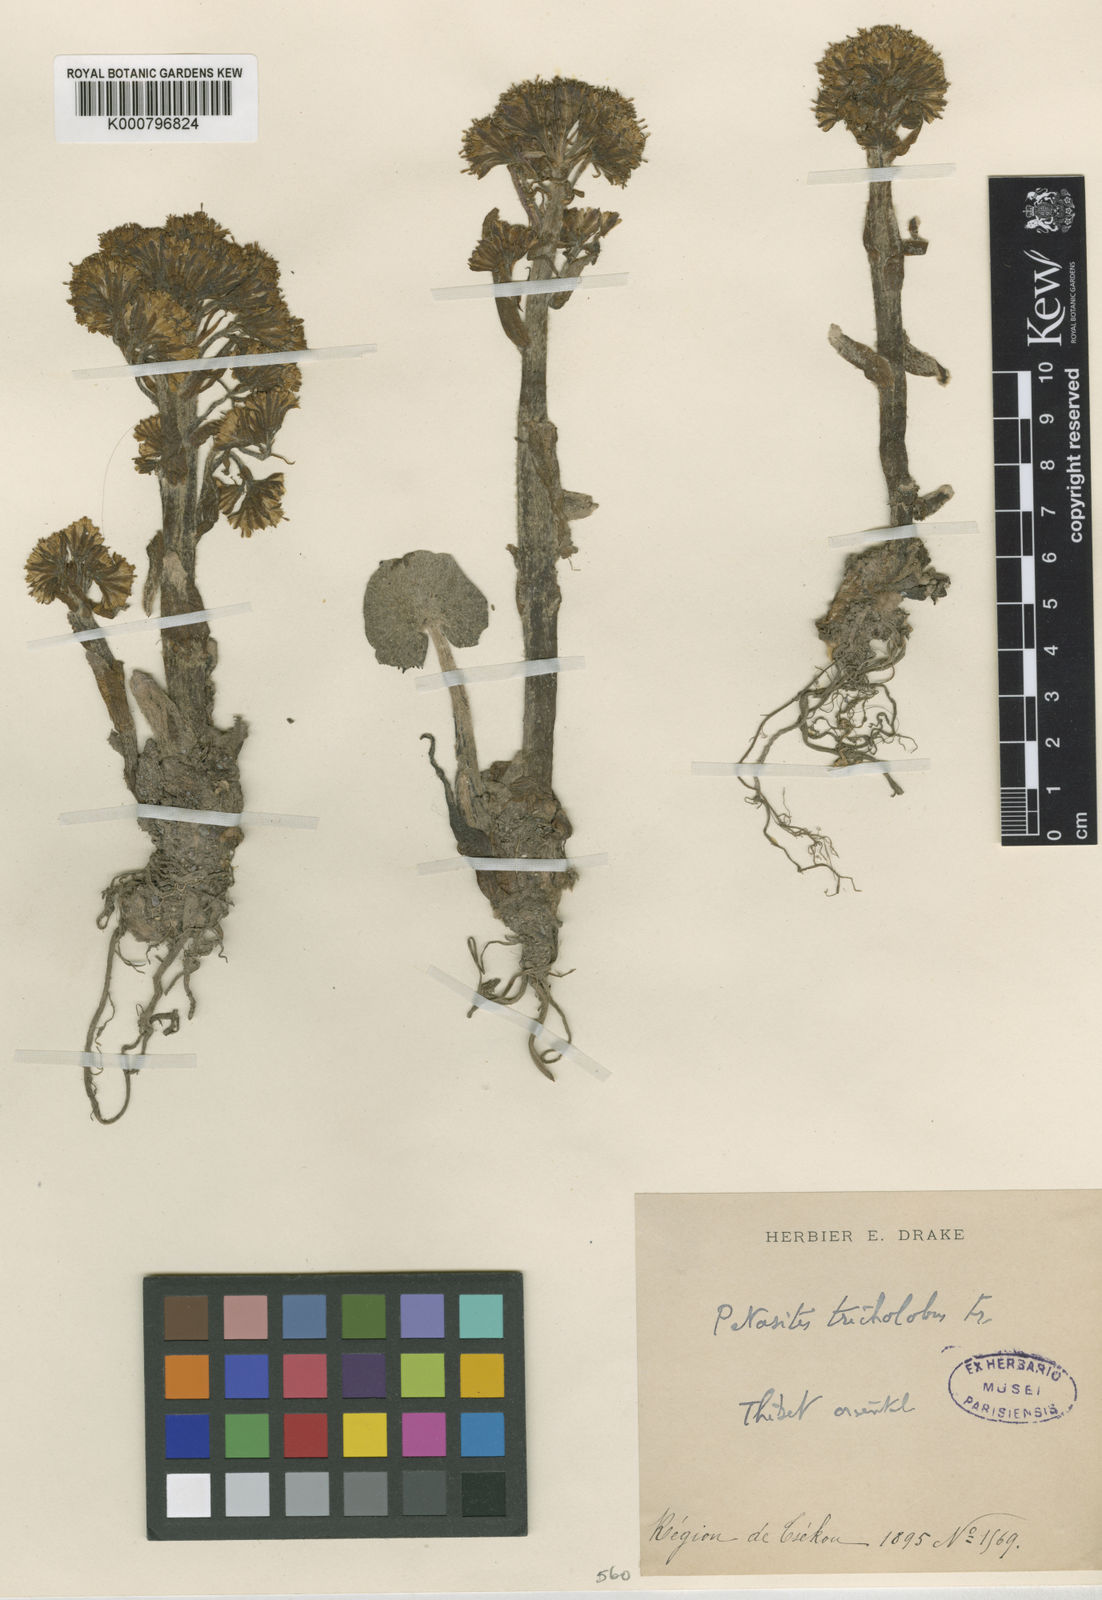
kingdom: Plantae
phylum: Tracheophyta
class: Magnoliopsida
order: Asterales
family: Asteraceae
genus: Petasites
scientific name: Petasites tricholobus
